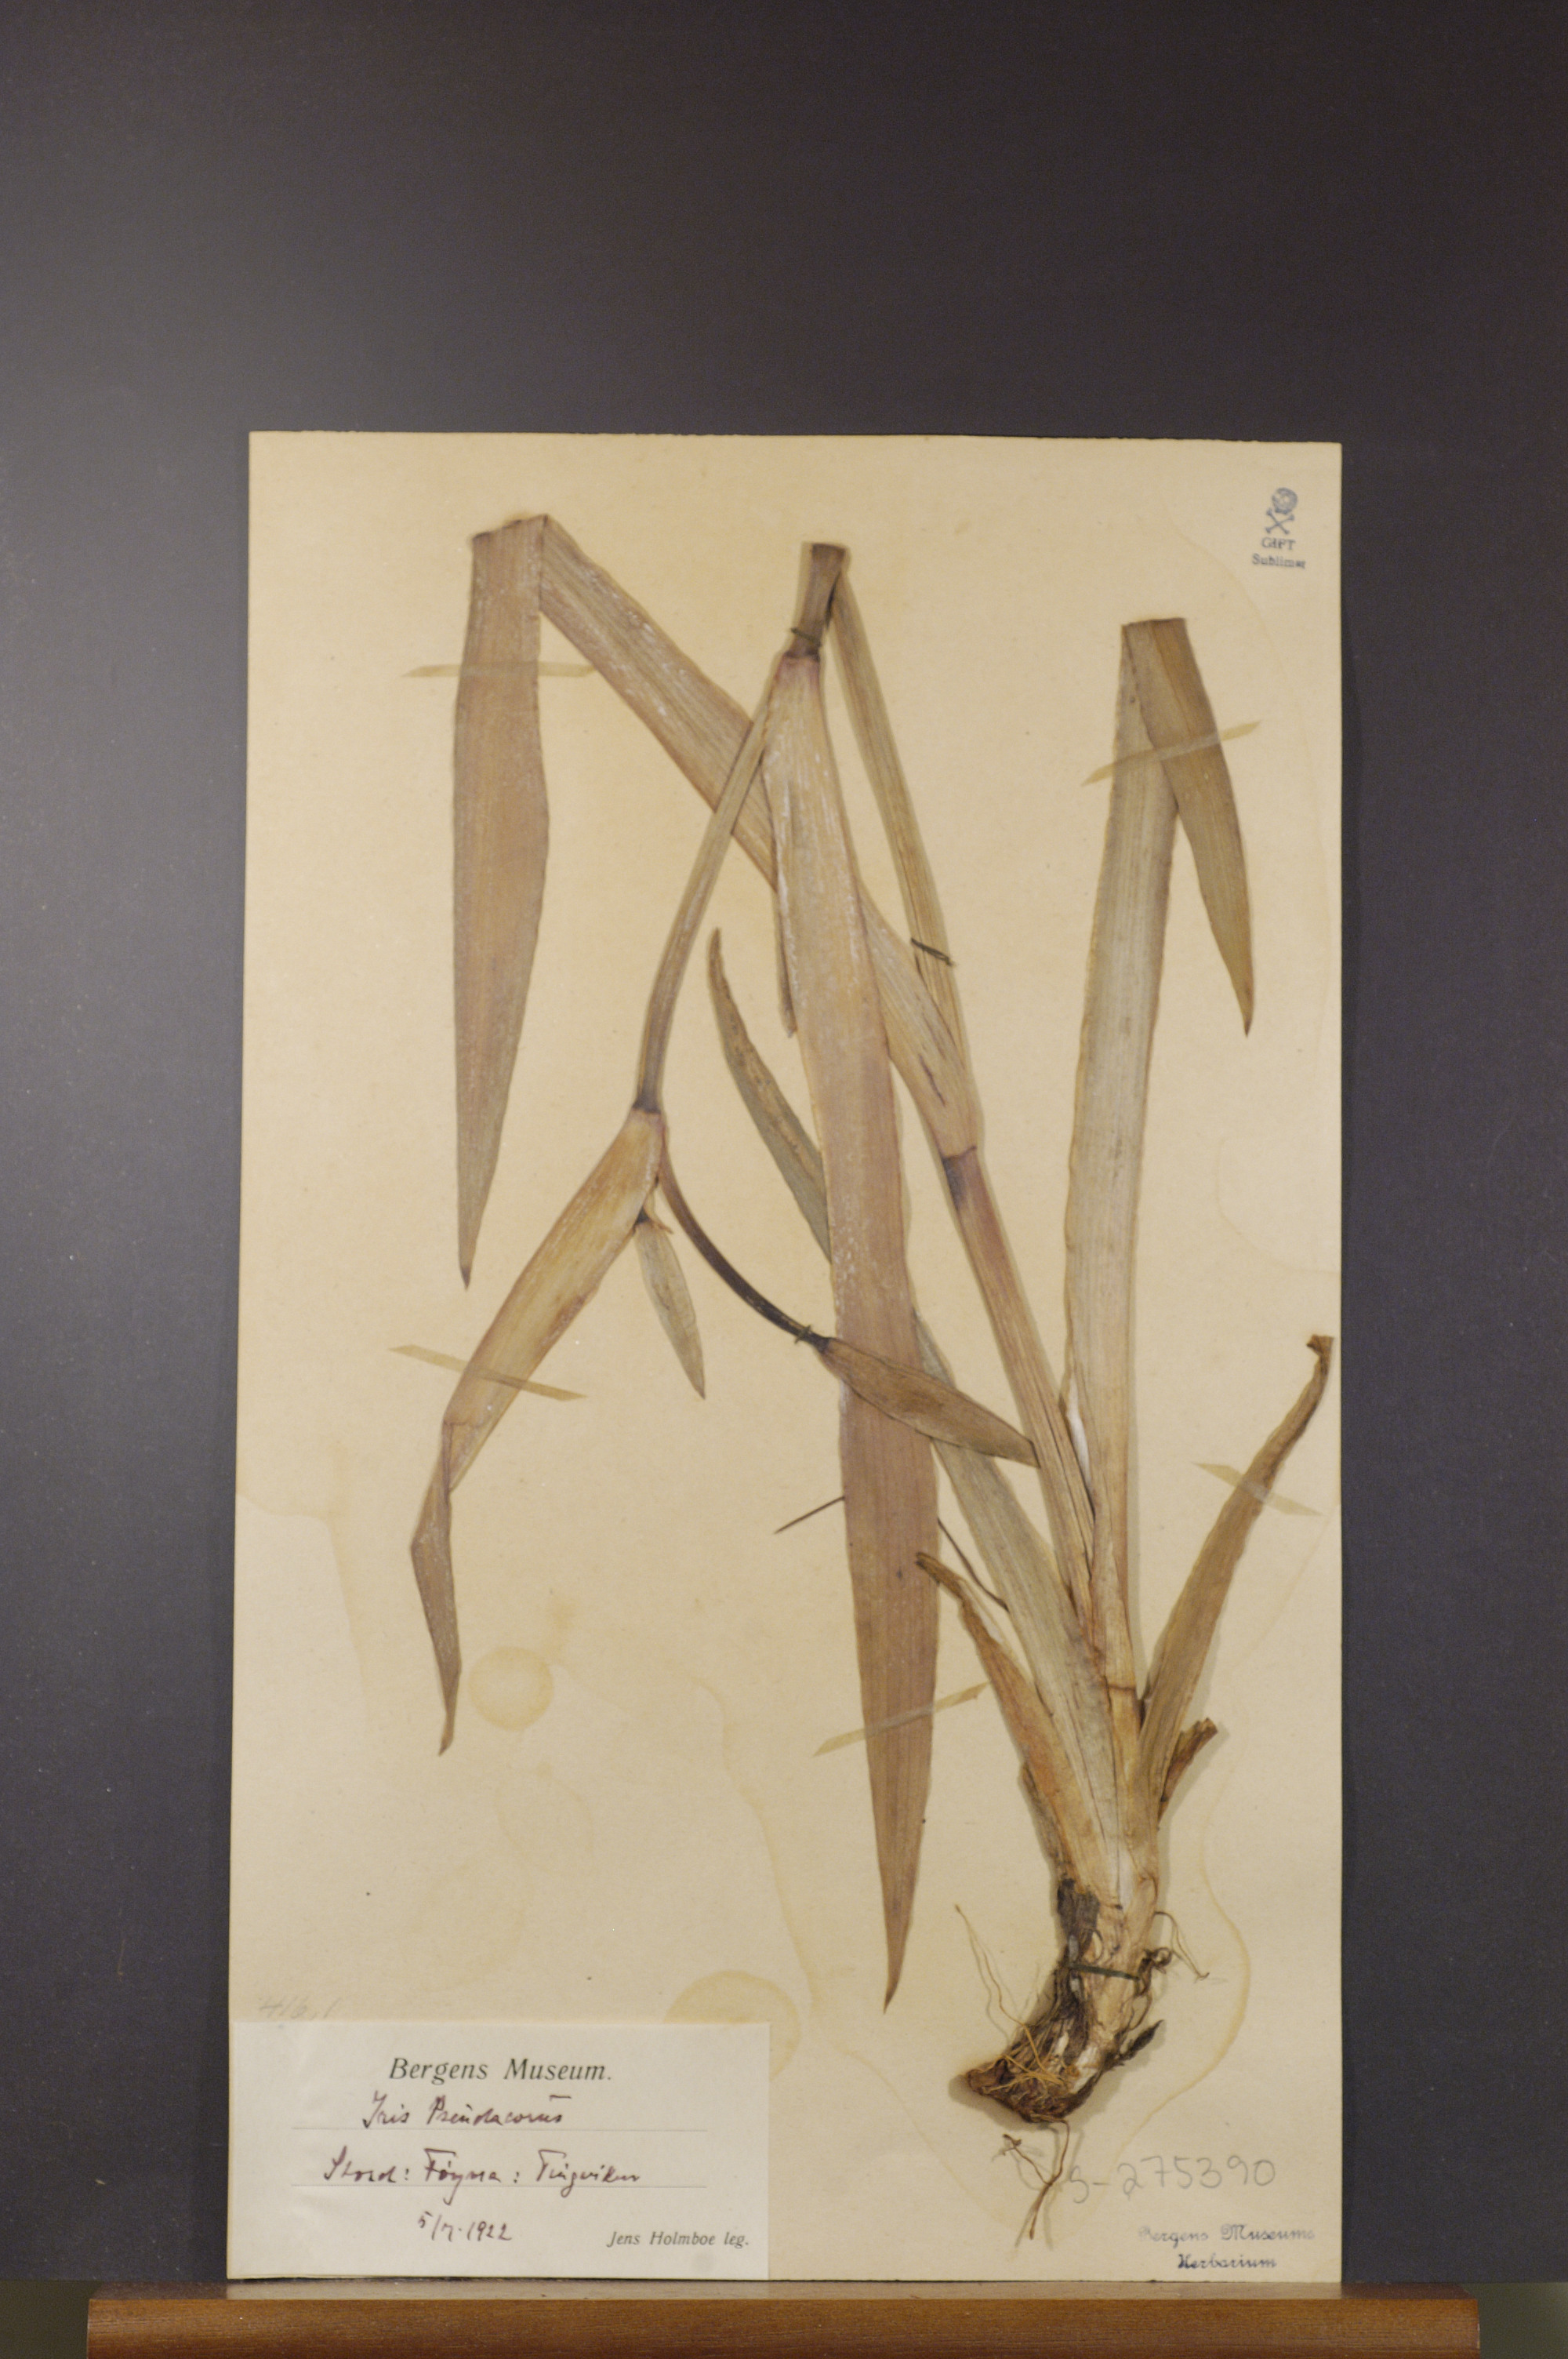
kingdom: Plantae
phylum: Tracheophyta
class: Liliopsida
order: Asparagales
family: Iridaceae
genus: Iris
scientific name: Iris pseudacorus
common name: Yellow flag
